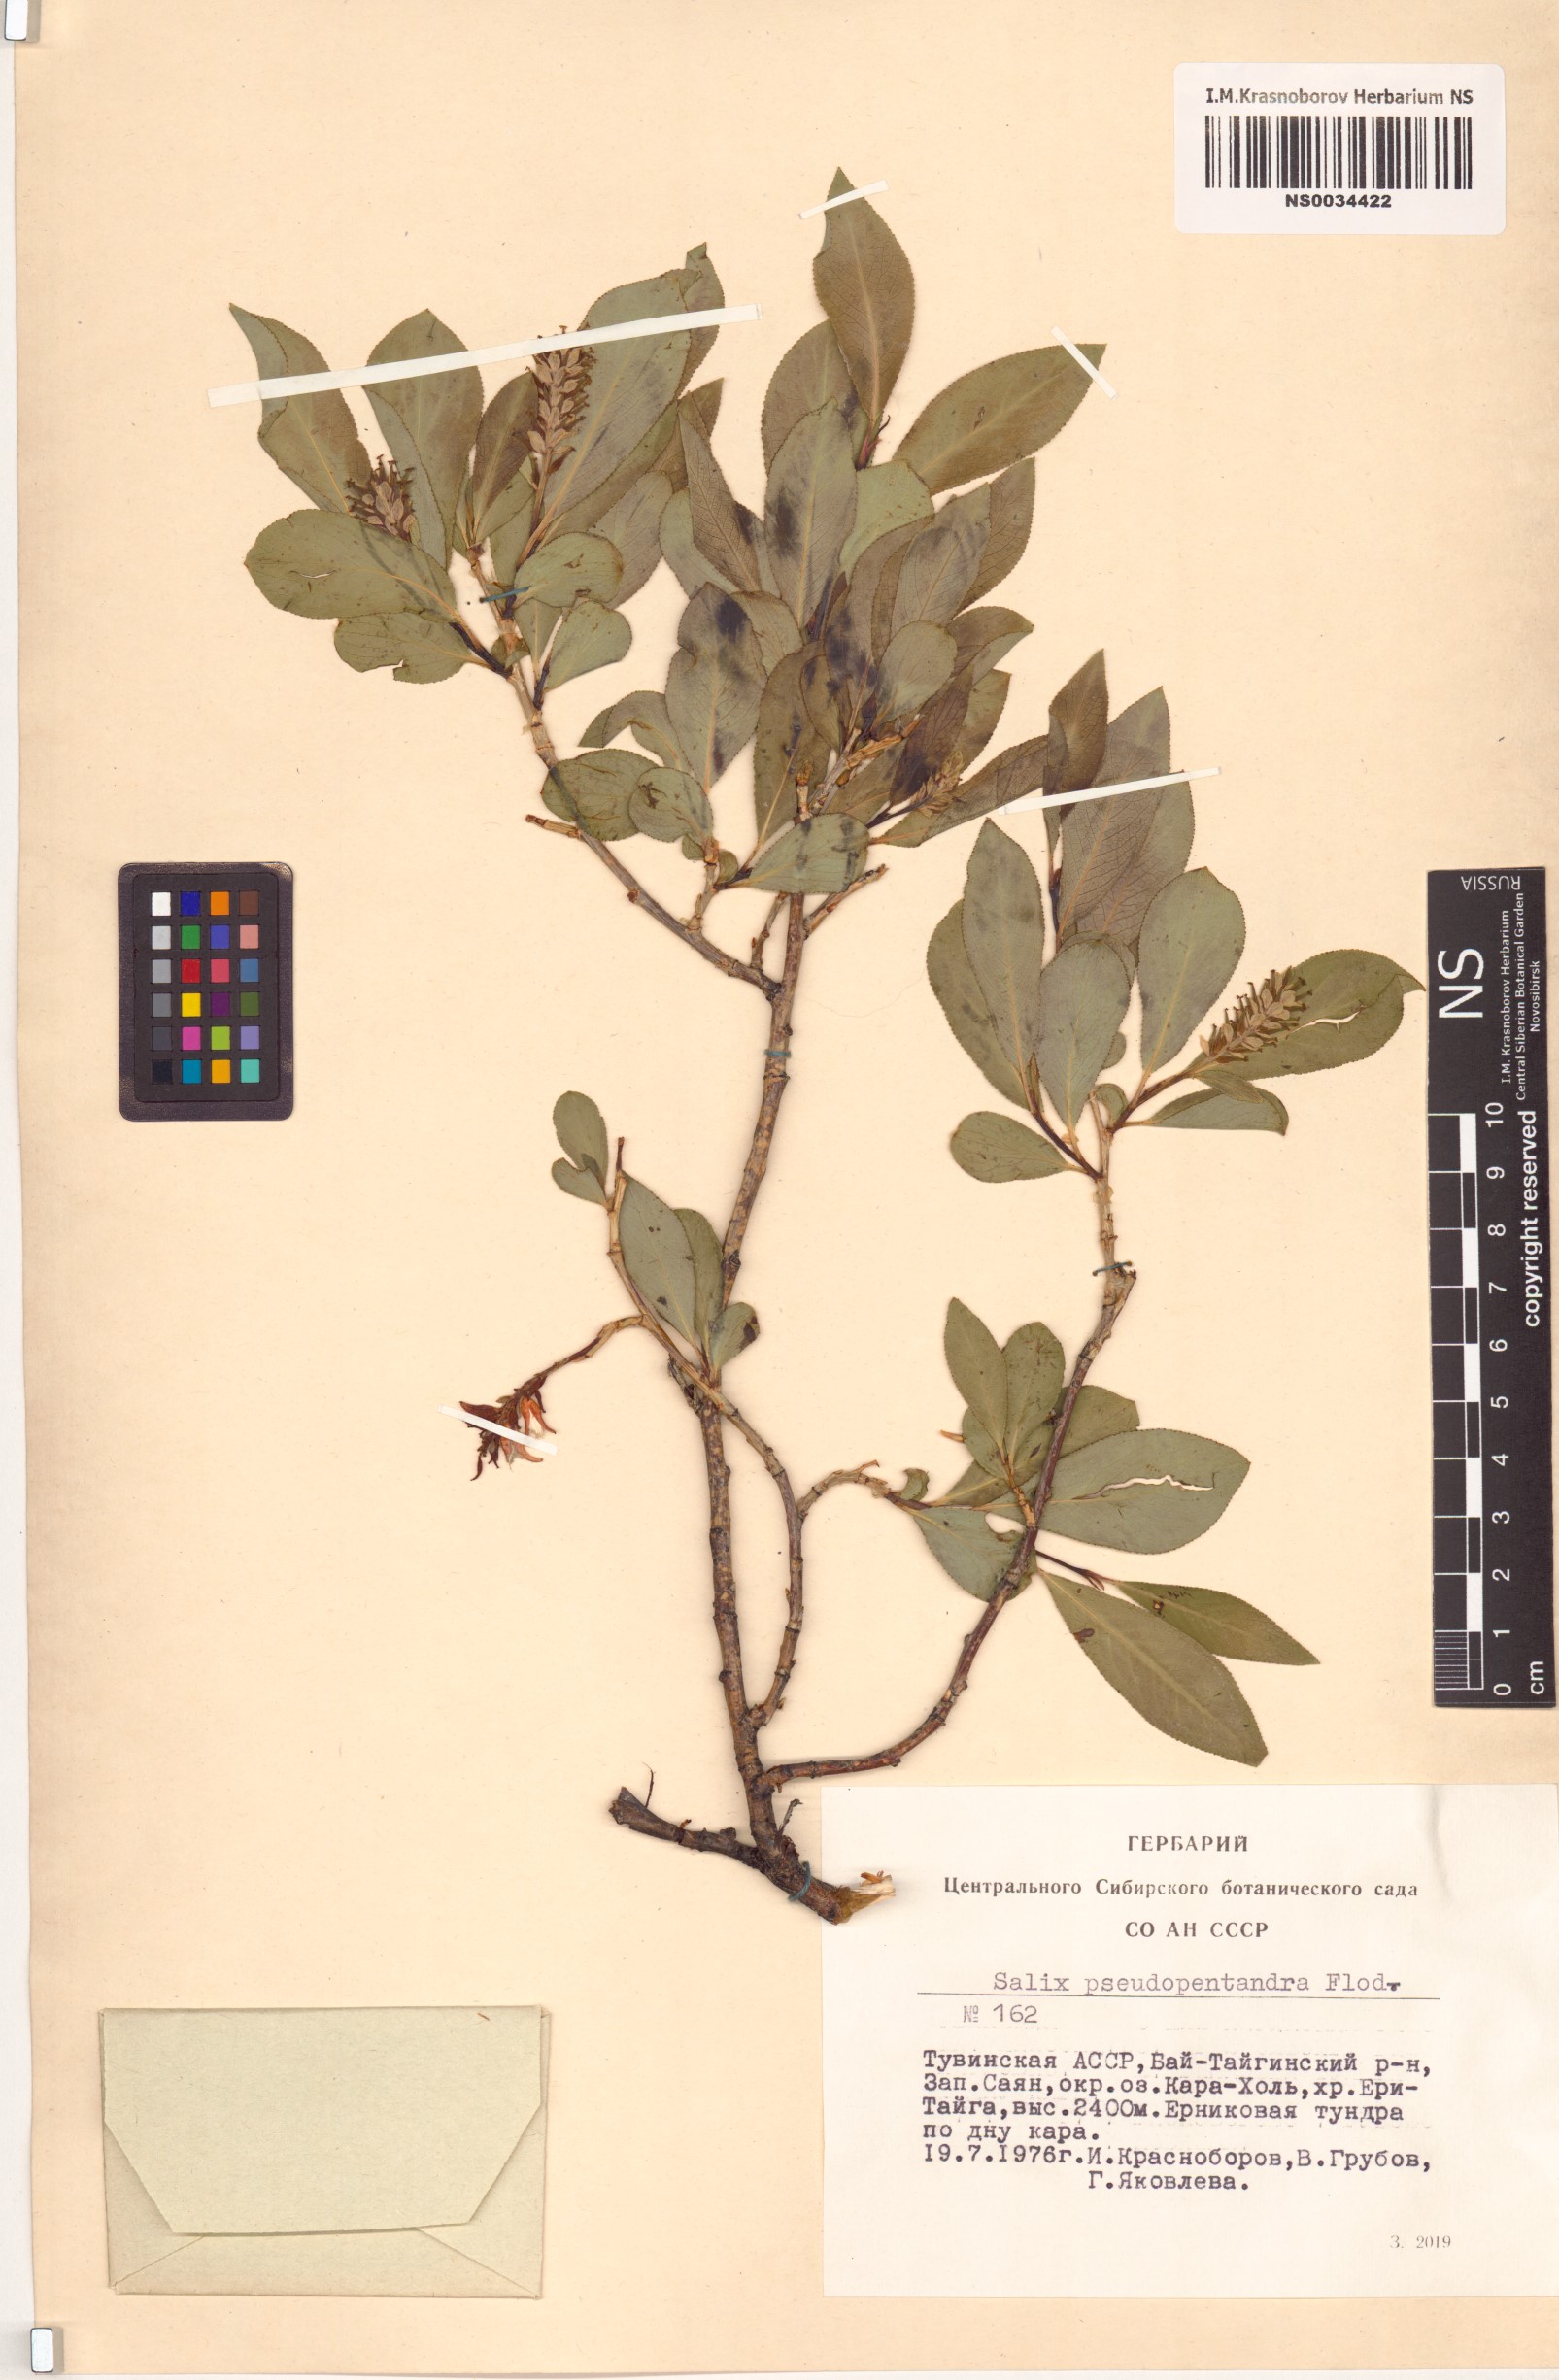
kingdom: Plantae
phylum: Tracheophyta
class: Magnoliopsida
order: Malpighiales
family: Salicaceae
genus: Salix
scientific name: Salix pseudopentandra
